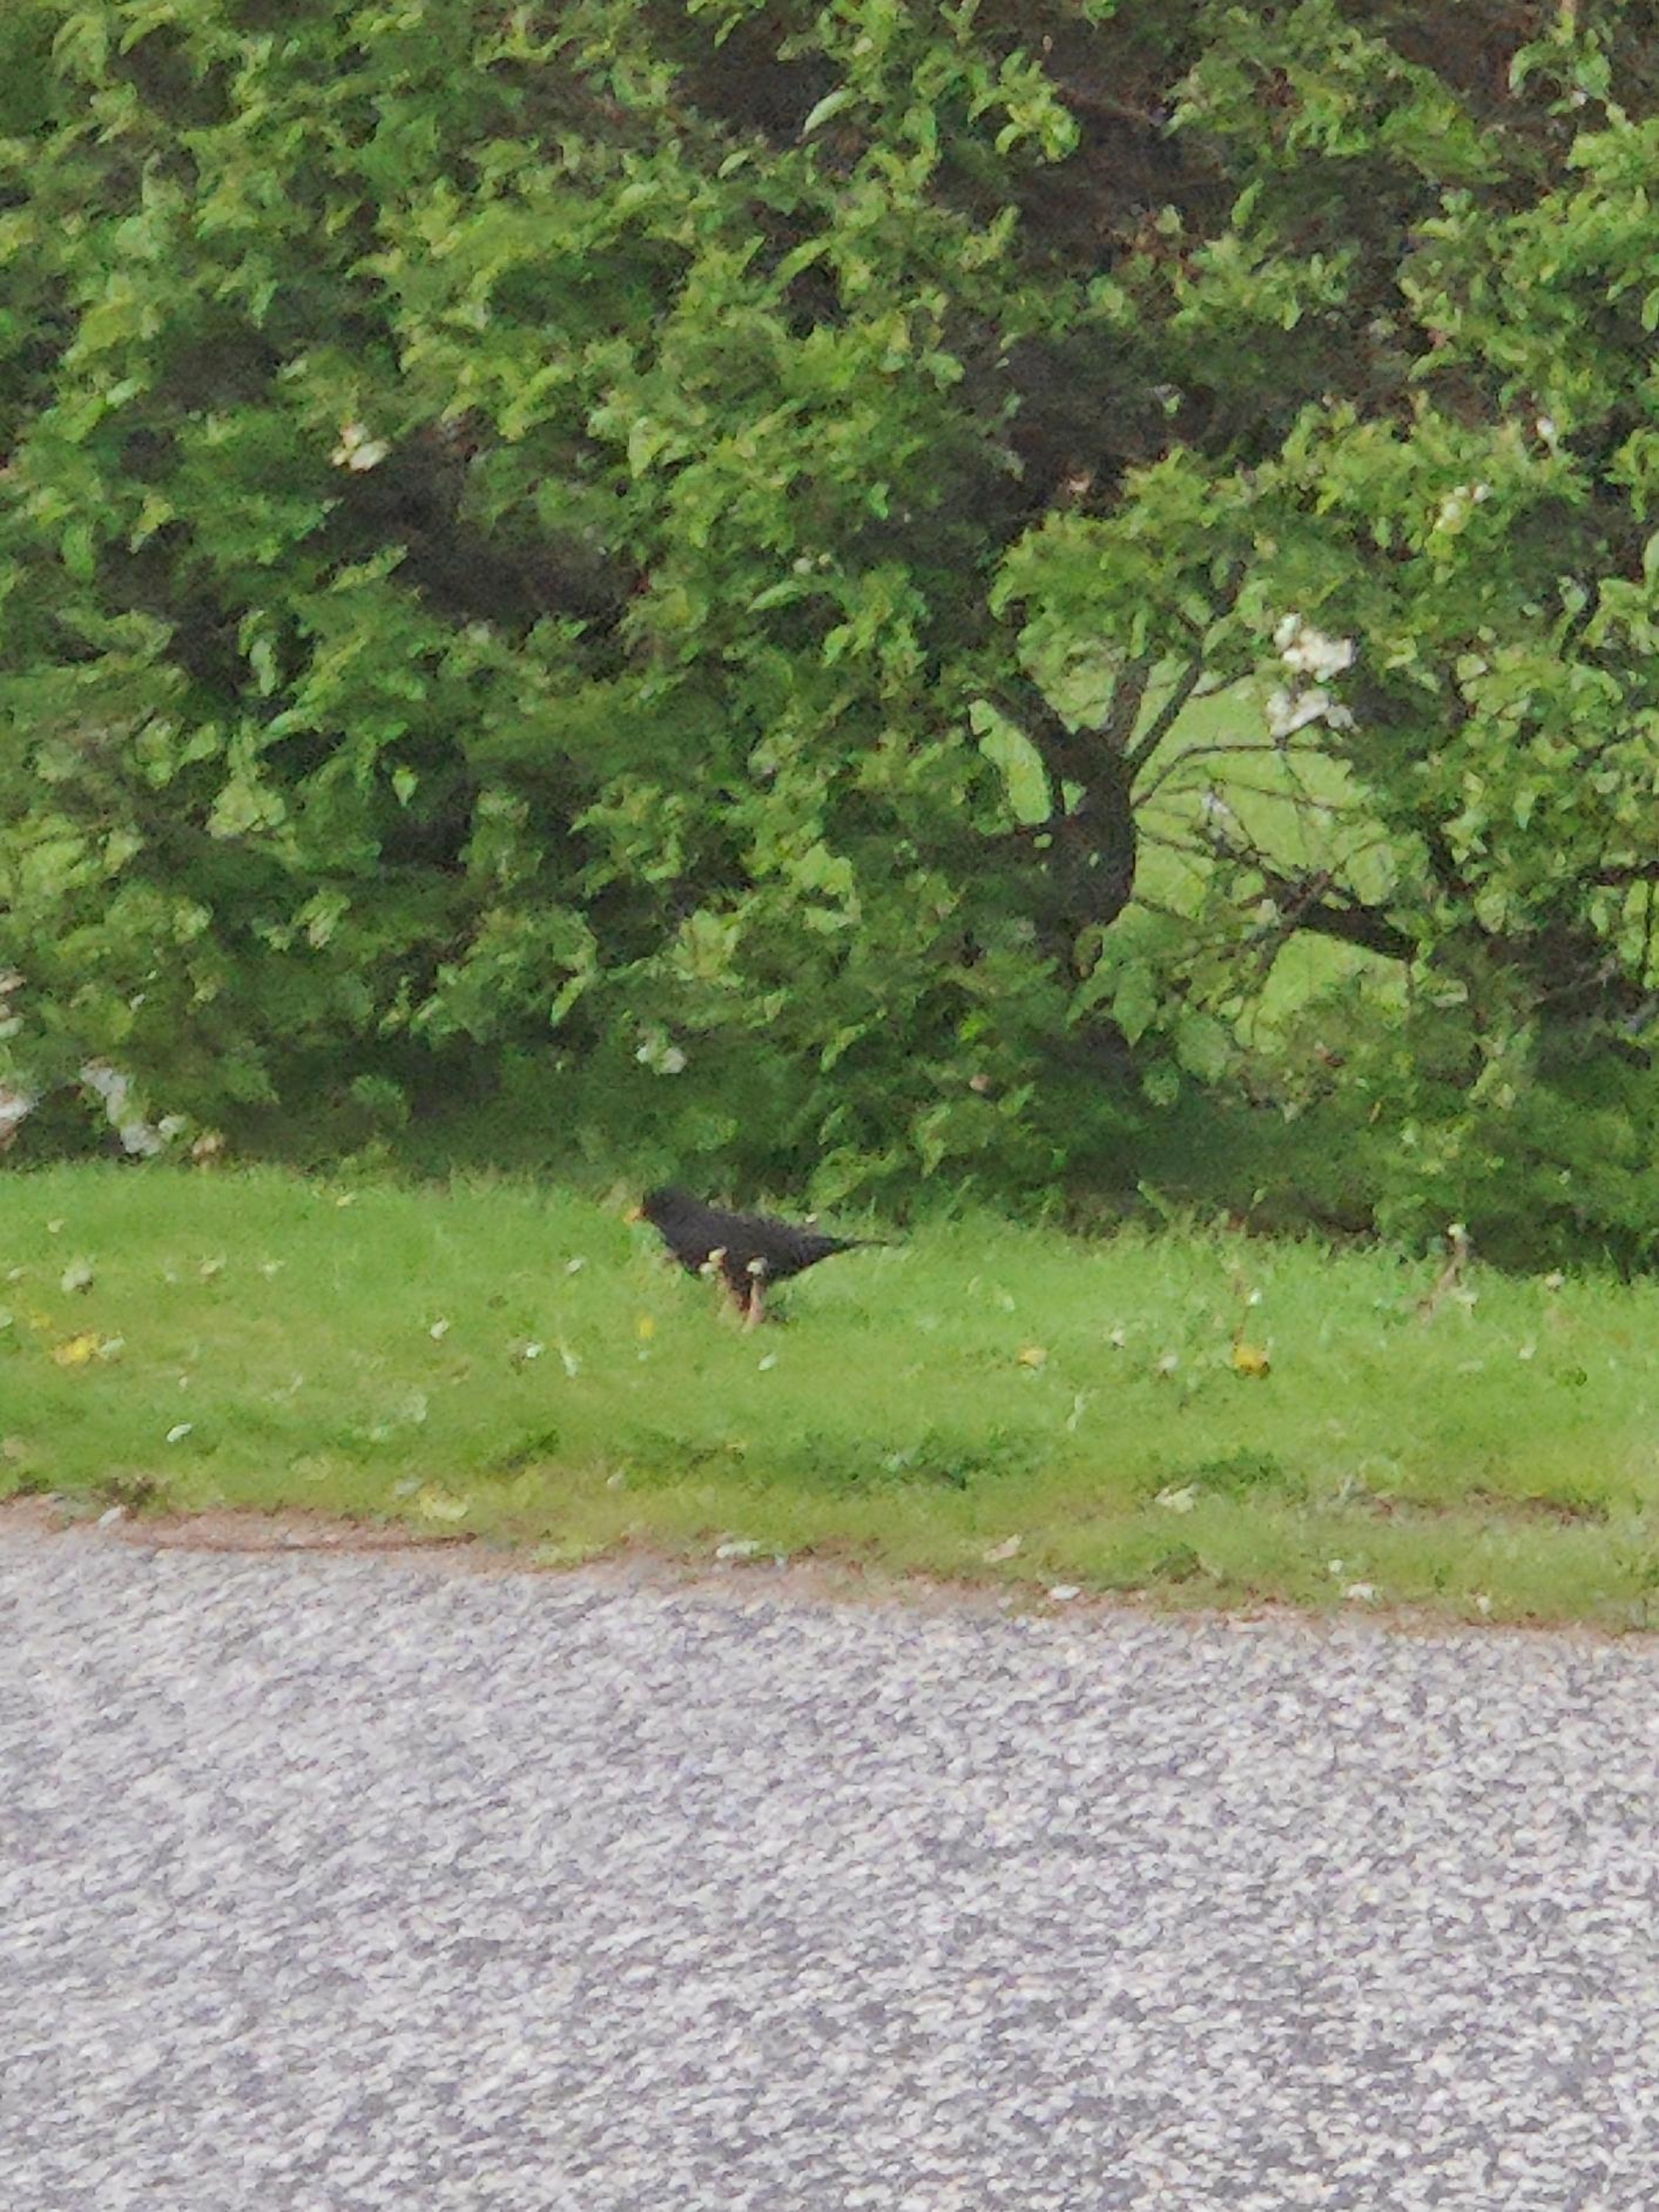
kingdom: Animalia
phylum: Chordata
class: Aves
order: Passeriformes
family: Turdidae
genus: Turdus
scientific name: Turdus merula
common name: Solsort
